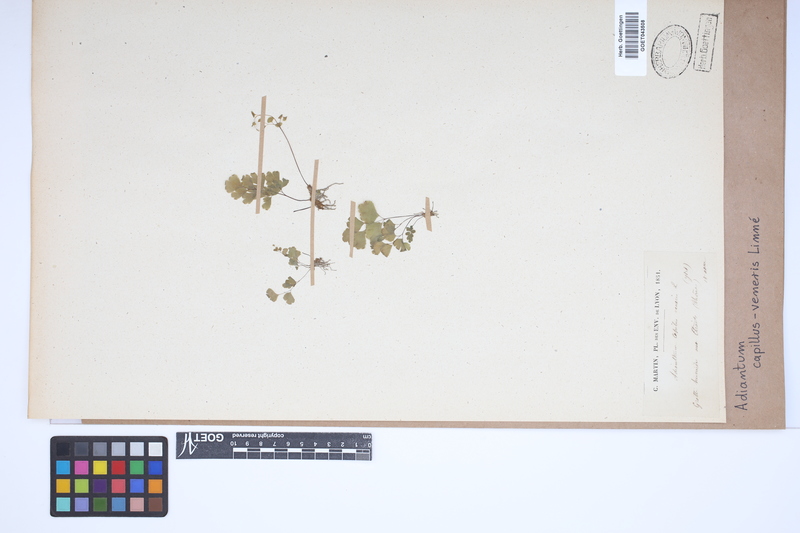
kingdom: Plantae
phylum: Tracheophyta
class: Polypodiopsida
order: Polypodiales
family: Pteridaceae
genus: Adiantum
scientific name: Adiantum capillus-veneris
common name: Maidenhair fern
